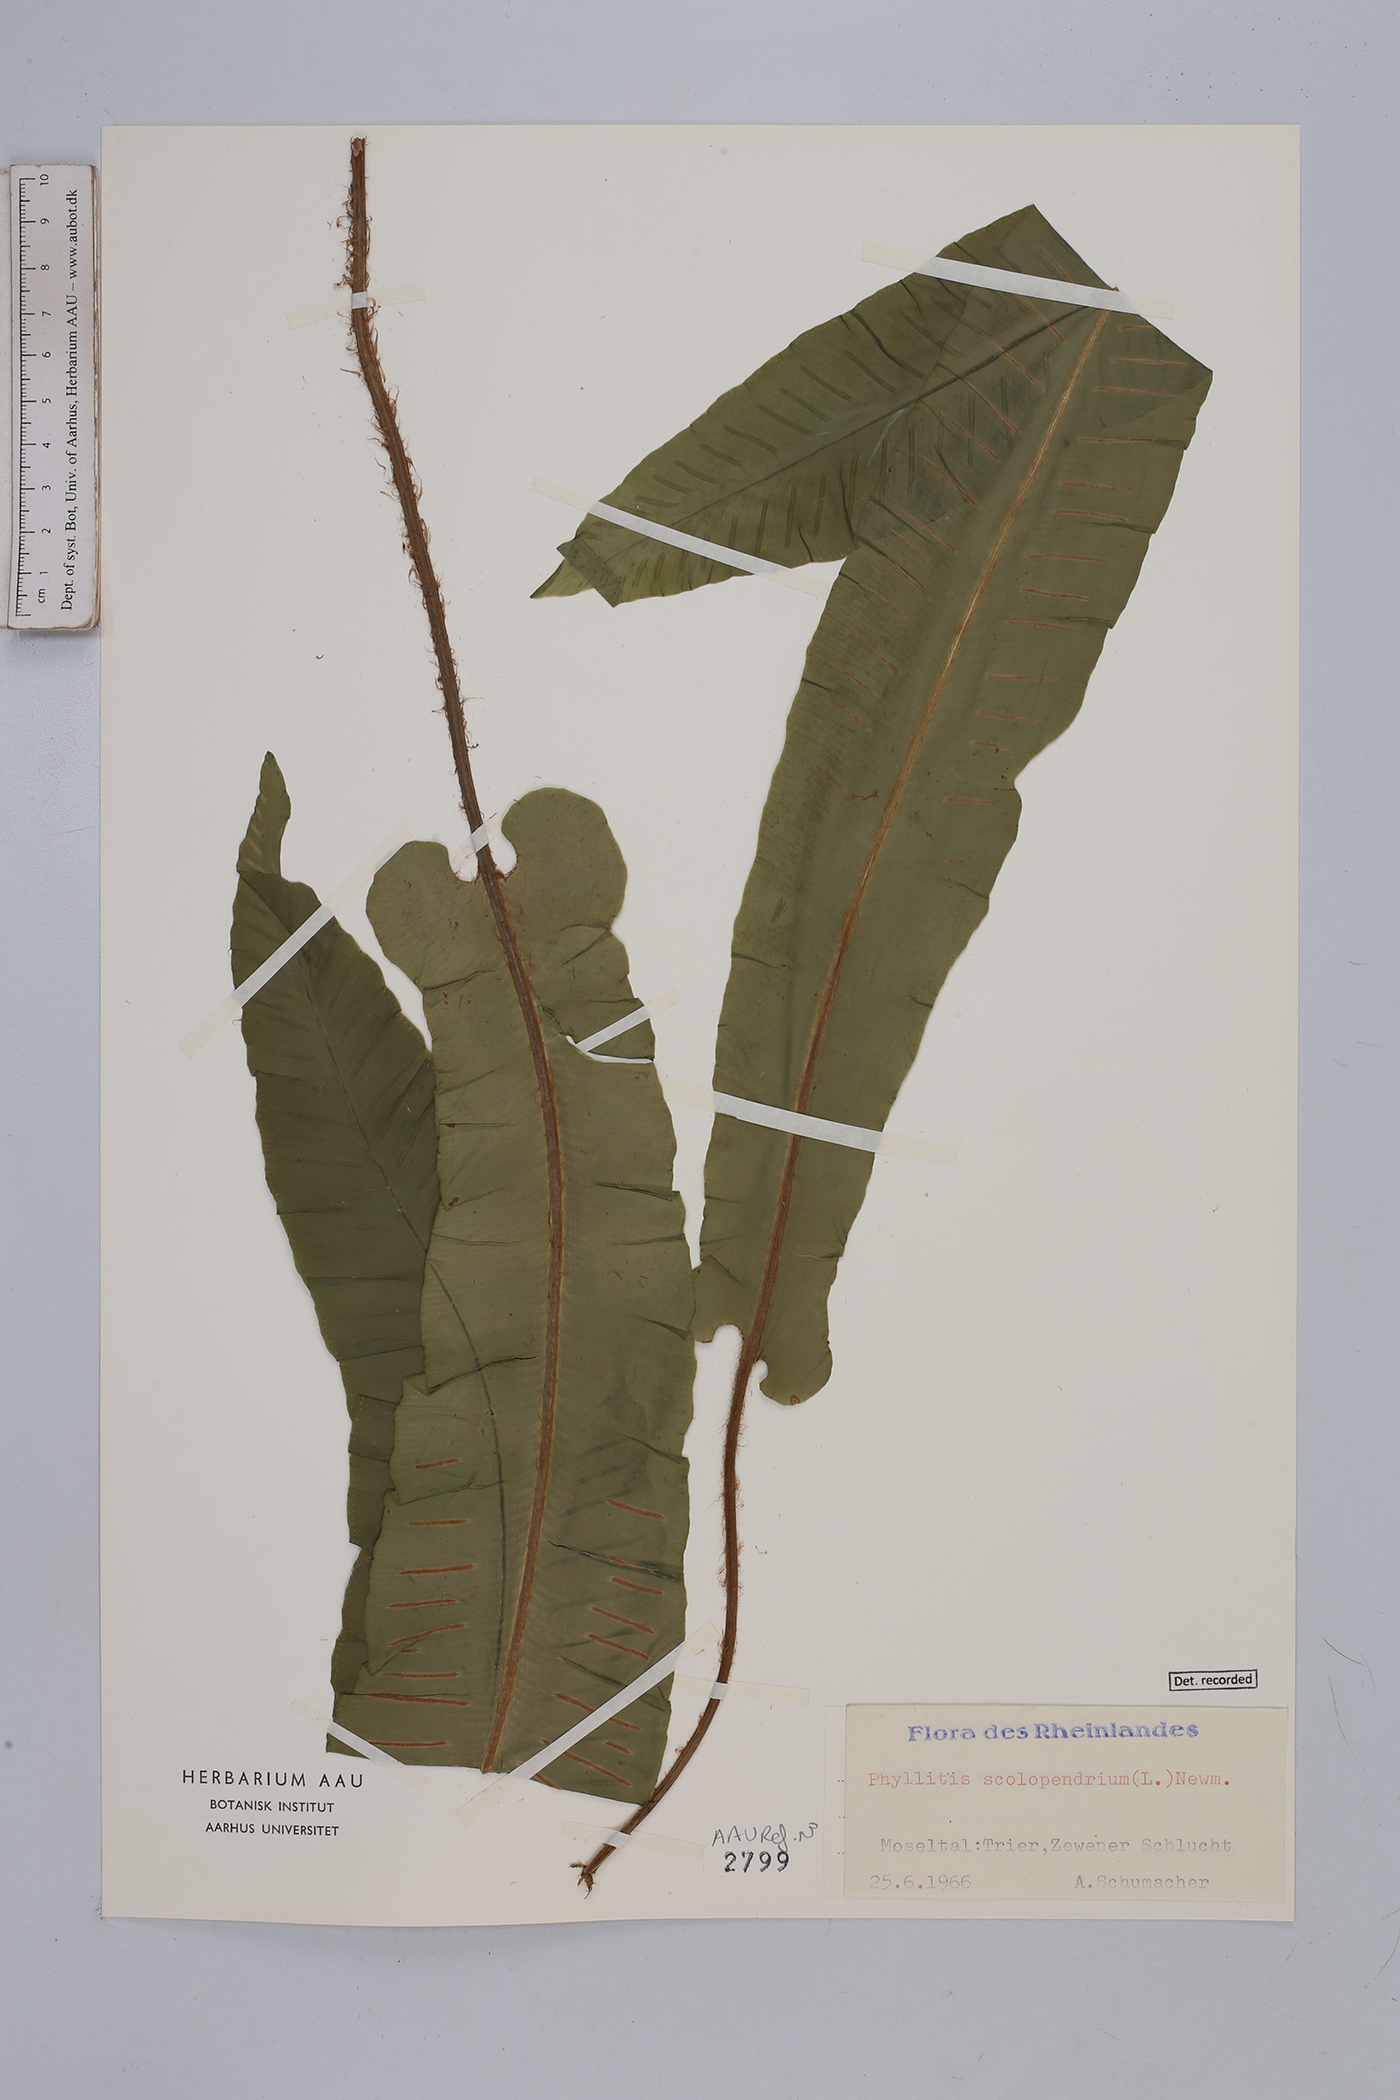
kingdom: Plantae
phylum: Tracheophyta
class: Polypodiopsida
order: Polypodiales
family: Aspleniaceae
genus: Asplenium
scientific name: Asplenium scolopendrium
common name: Hart's-tongue fern
